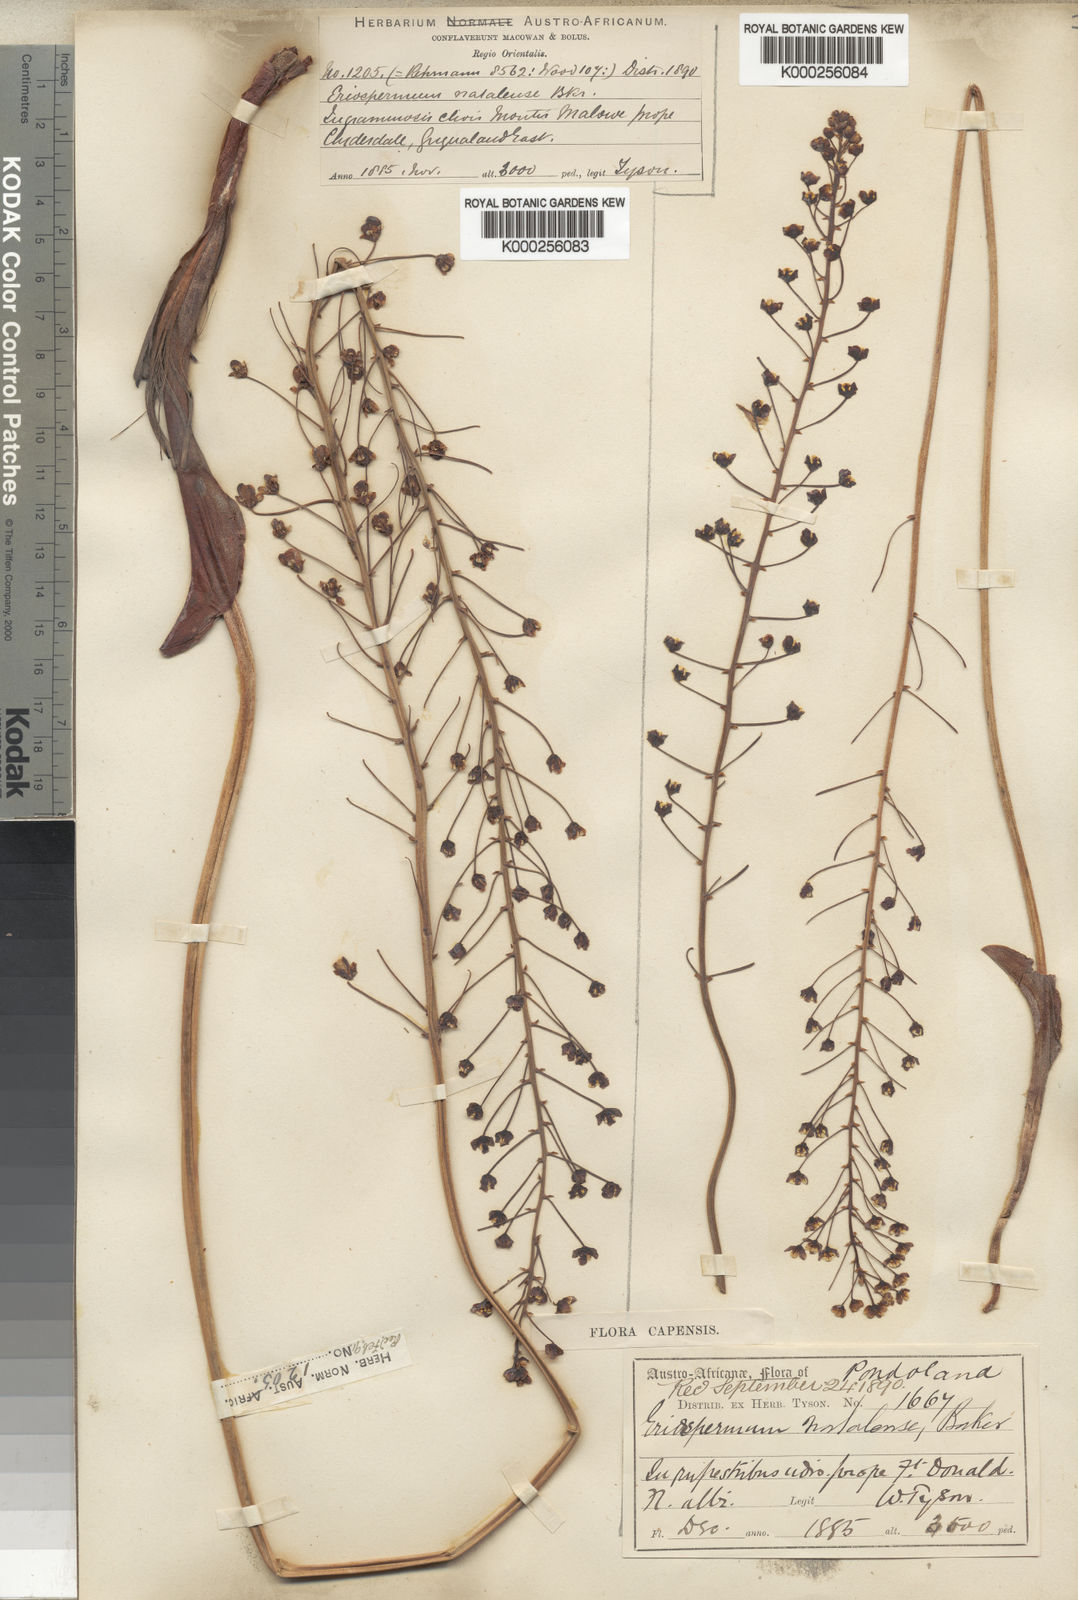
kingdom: Plantae
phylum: Tracheophyta
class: Liliopsida
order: Asparagales
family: Asparagaceae
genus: Eriospermum
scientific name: Eriospermum cooperi
